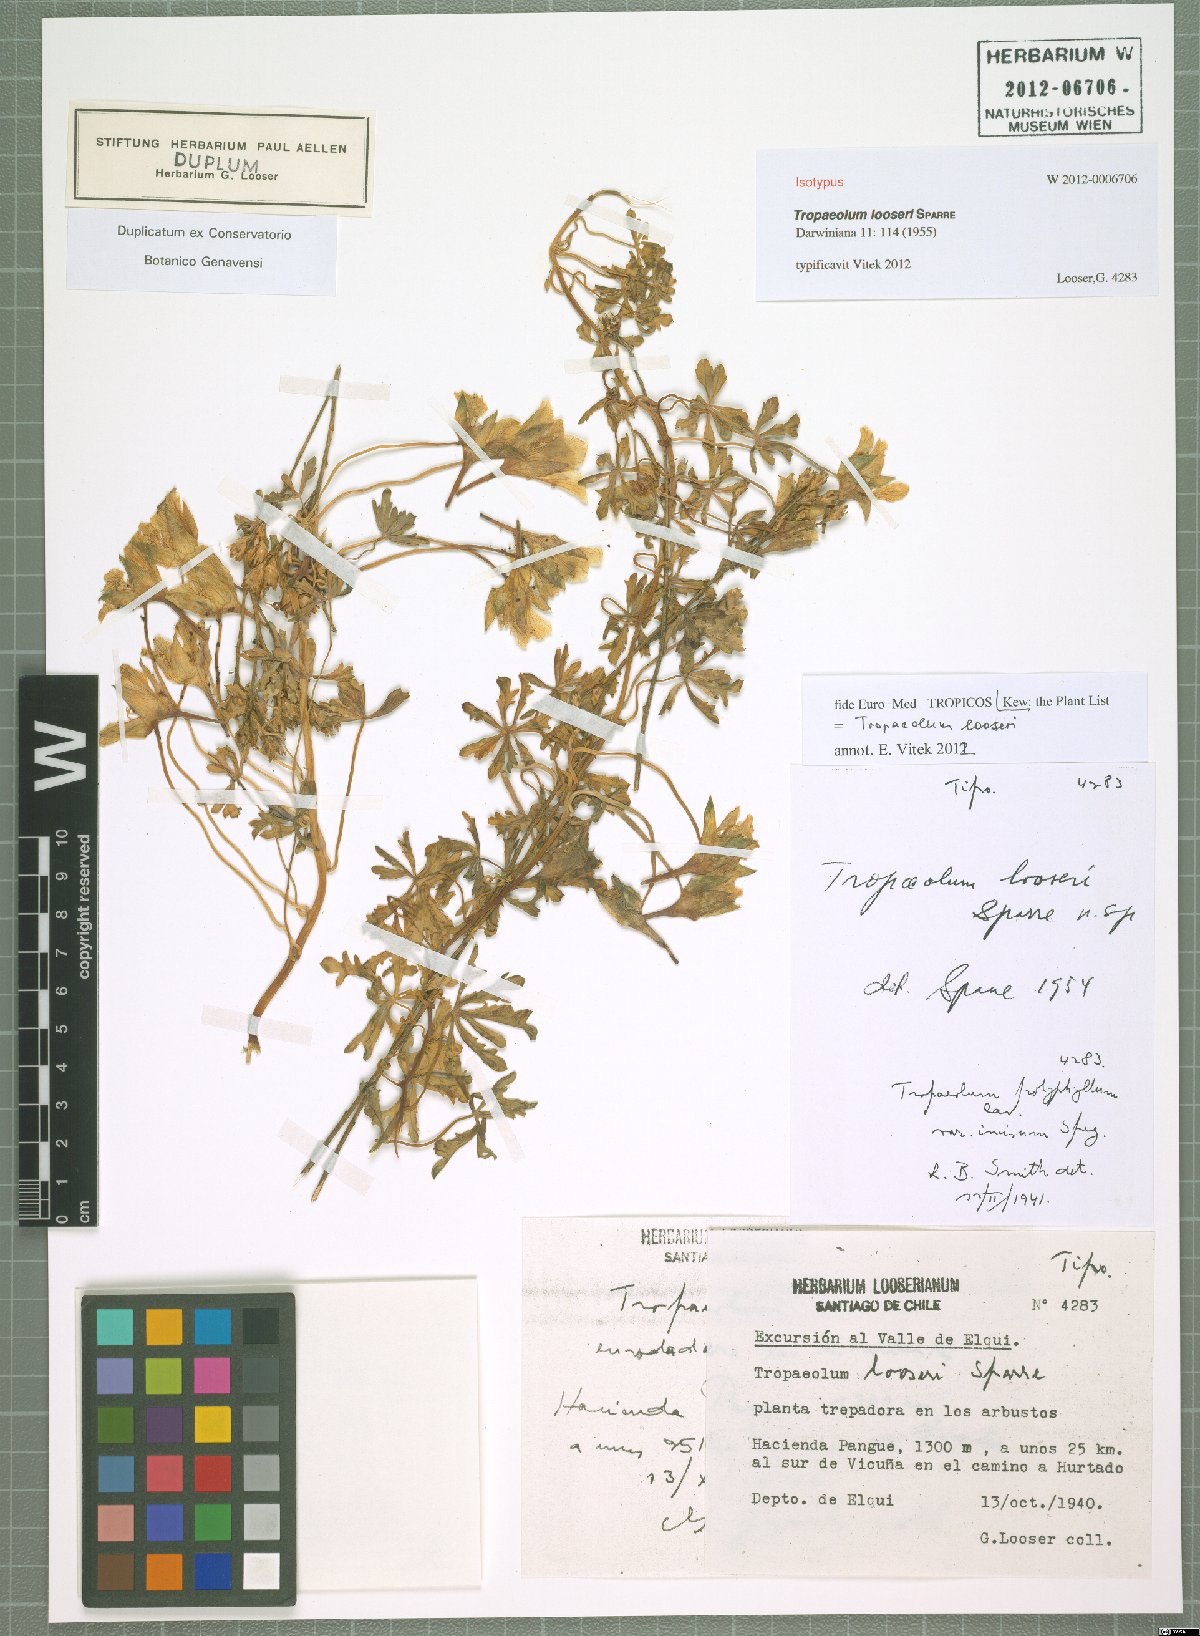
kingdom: Plantae
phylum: Tracheophyta
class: Magnoliopsida
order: Brassicales
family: Tropaeolaceae
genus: Tropaeolum
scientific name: Tropaeolum looseri
